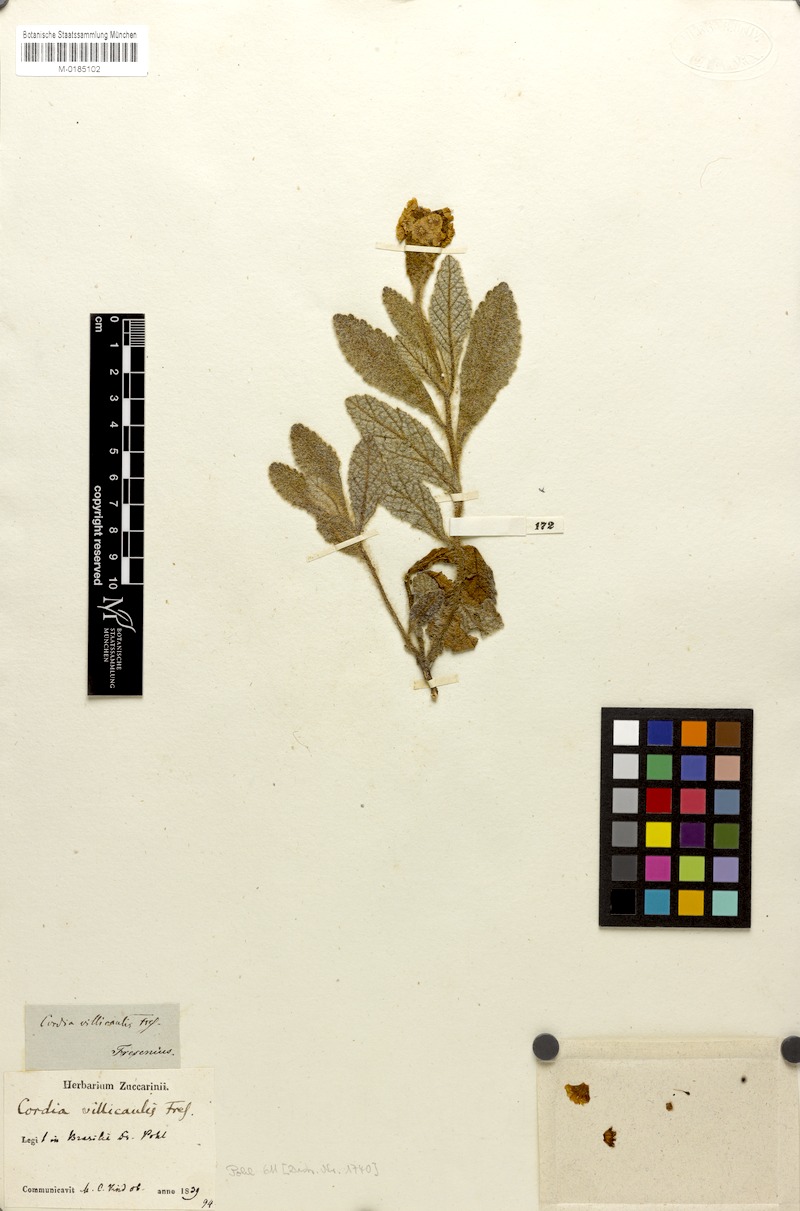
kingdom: Plantae
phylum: Tracheophyta
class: Magnoliopsida
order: Boraginales
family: Cordiaceae
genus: Varronia
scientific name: Varronia sessilifolia
